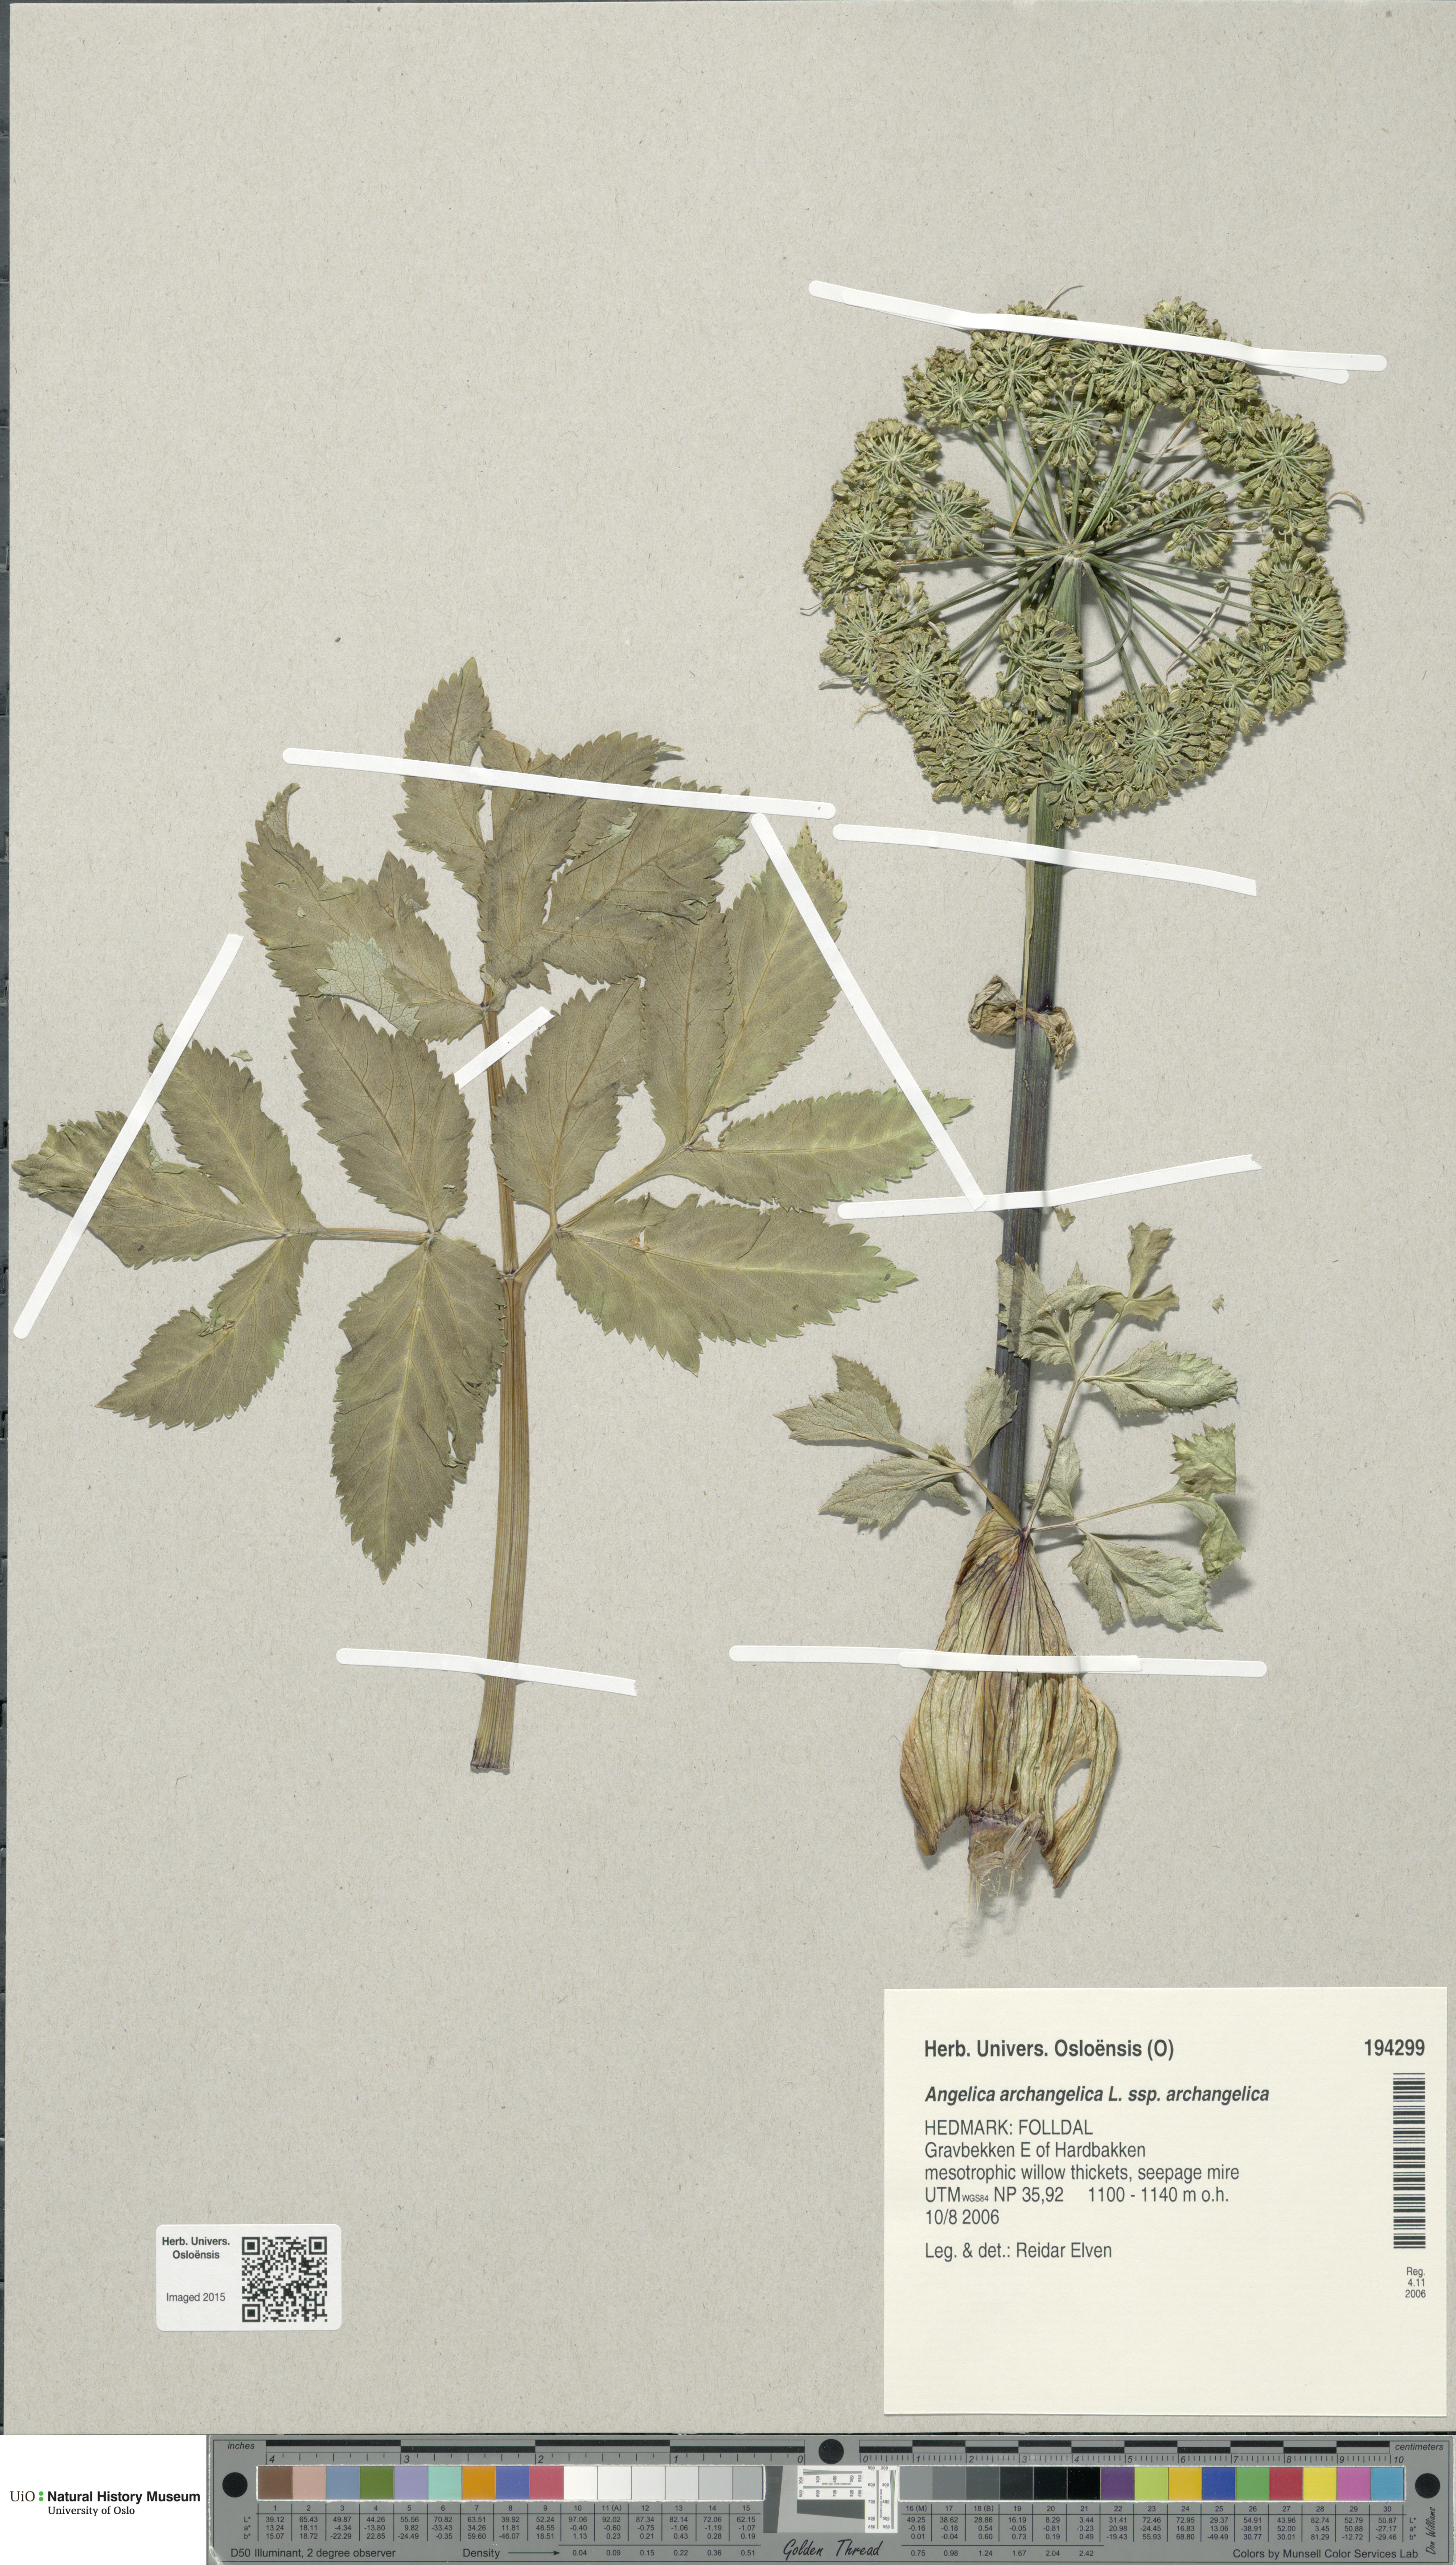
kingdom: Plantae
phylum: Tracheophyta
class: Magnoliopsida
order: Apiales
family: Apiaceae
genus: Angelica
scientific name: Angelica archangelica
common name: Garden angelica
